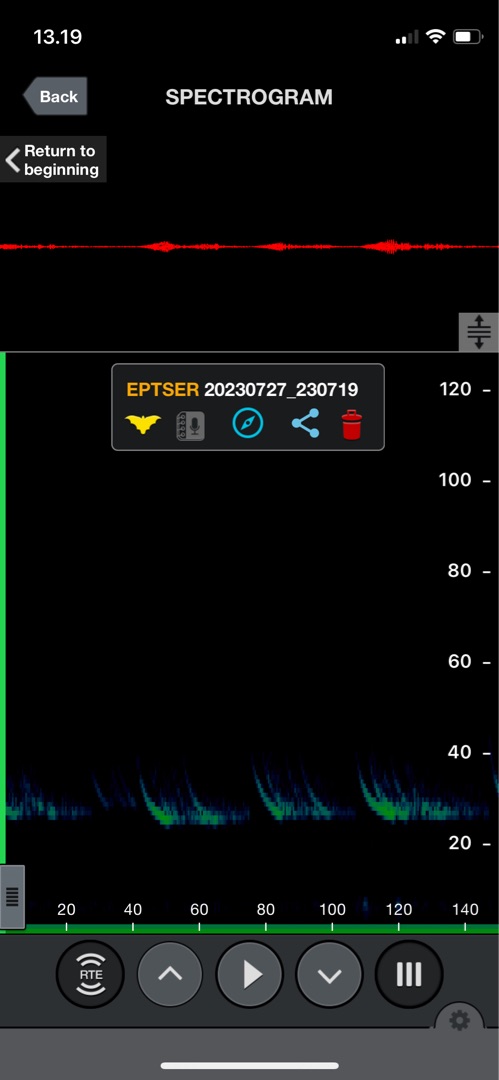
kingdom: Animalia
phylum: Chordata
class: Mammalia
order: Chiroptera
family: Vespertilionidae
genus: Eptesicus
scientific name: Eptesicus serotinus
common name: Sydflagermus
